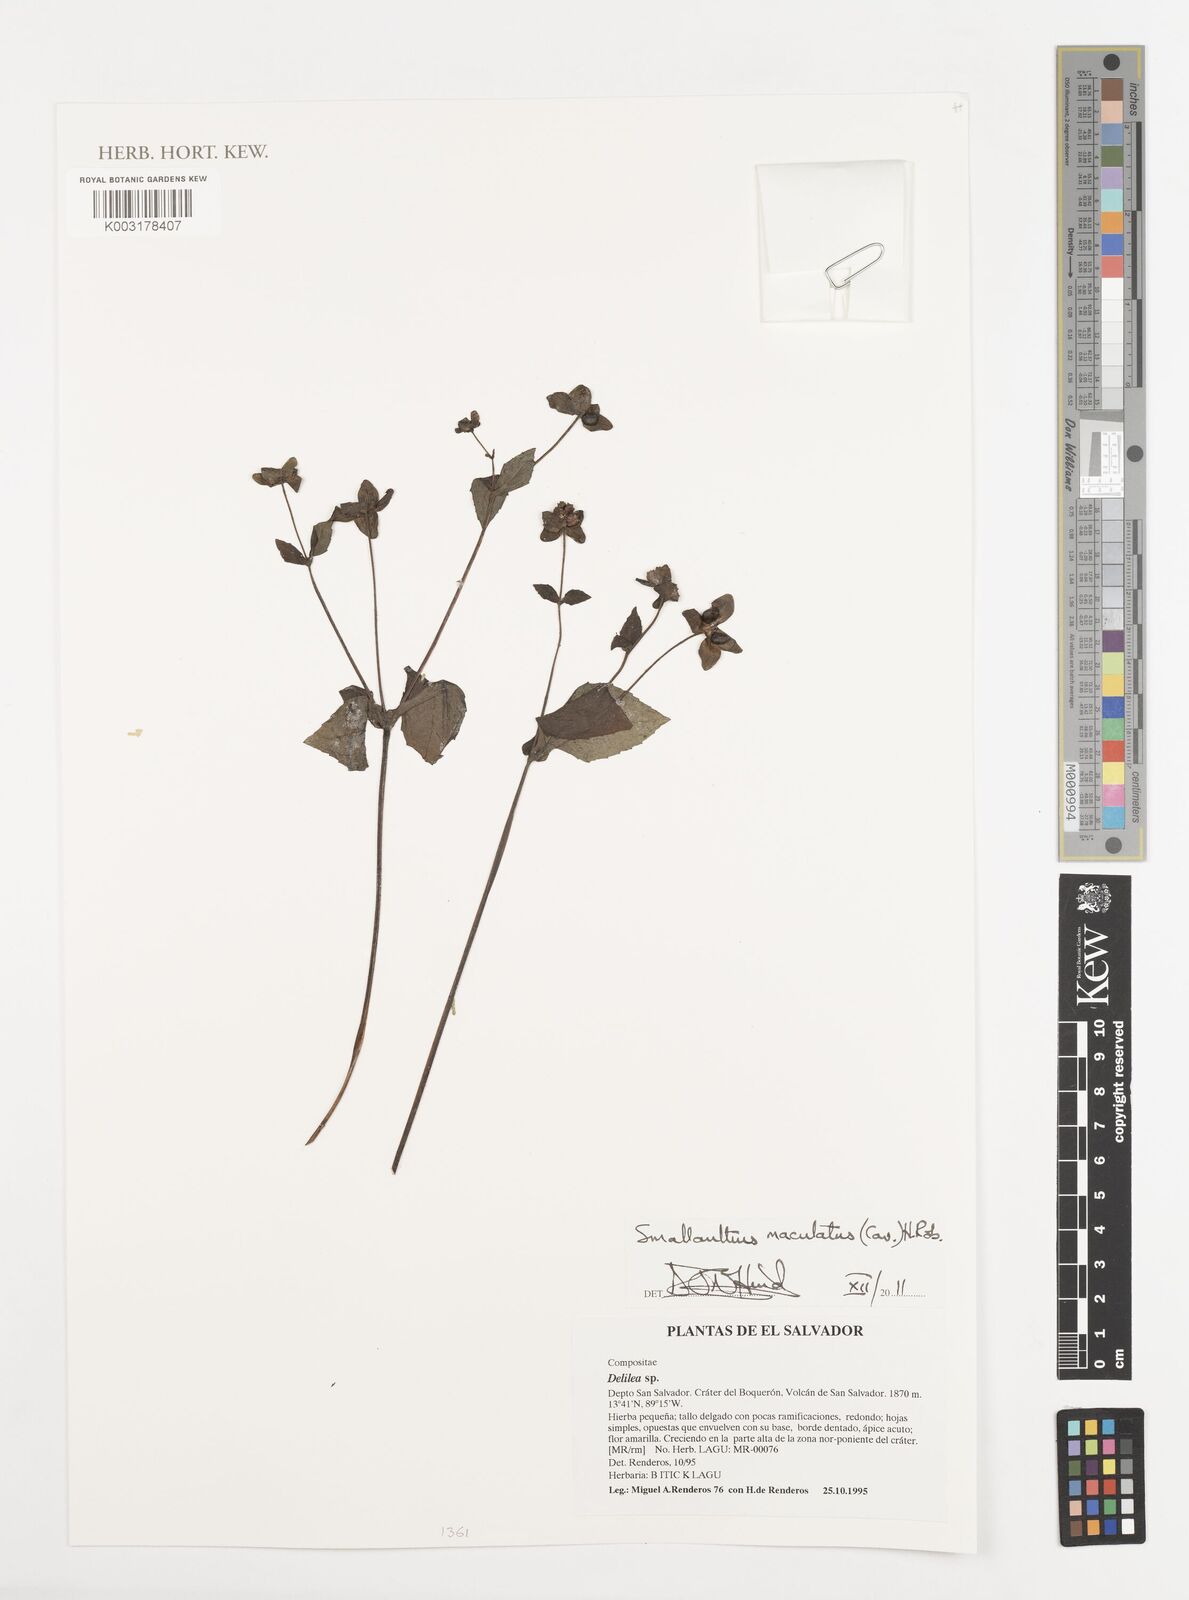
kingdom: Plantae
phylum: Tracheophyta
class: Magnoliopsida
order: Asterales
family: Asteraceae
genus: Smallanthus
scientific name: Smallanthus maculatus
